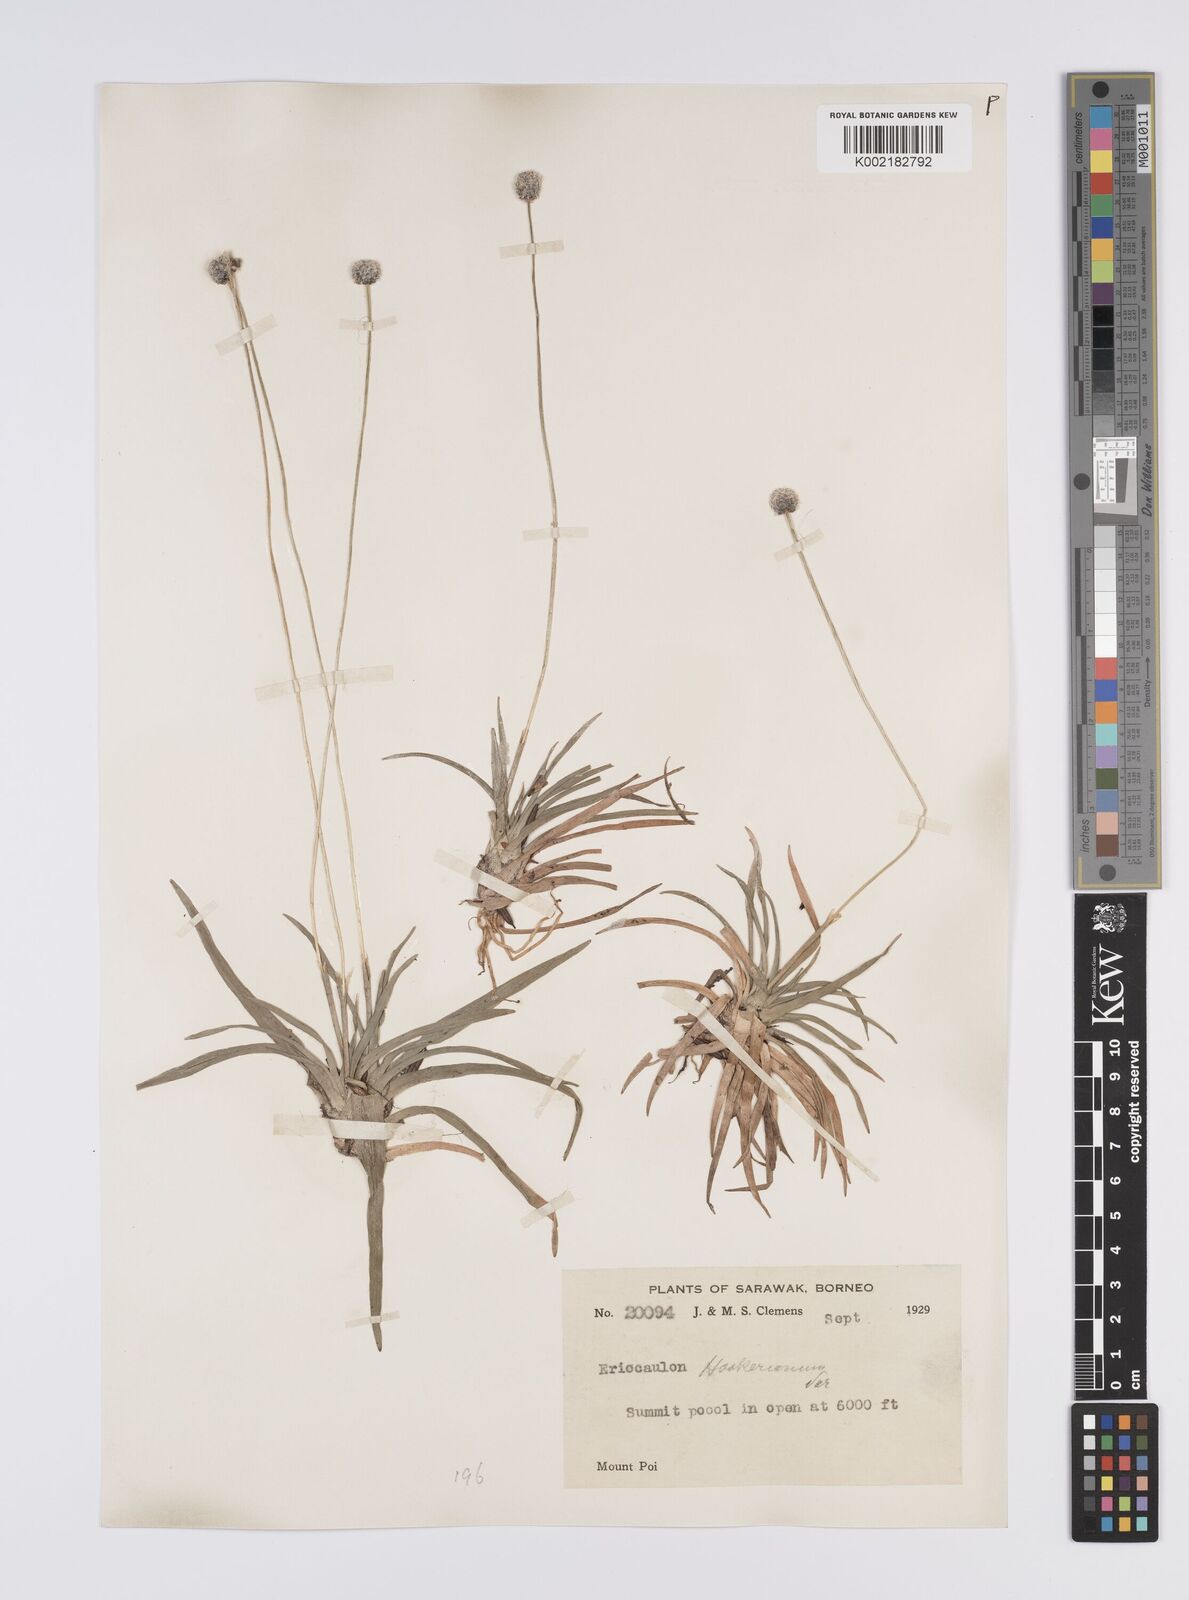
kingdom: Plantae
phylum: Tracheophyta
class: Liliopsida
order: Poales
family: Eriocaulaceae
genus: Eriocaulon
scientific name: Eriocaulon hookerianum
